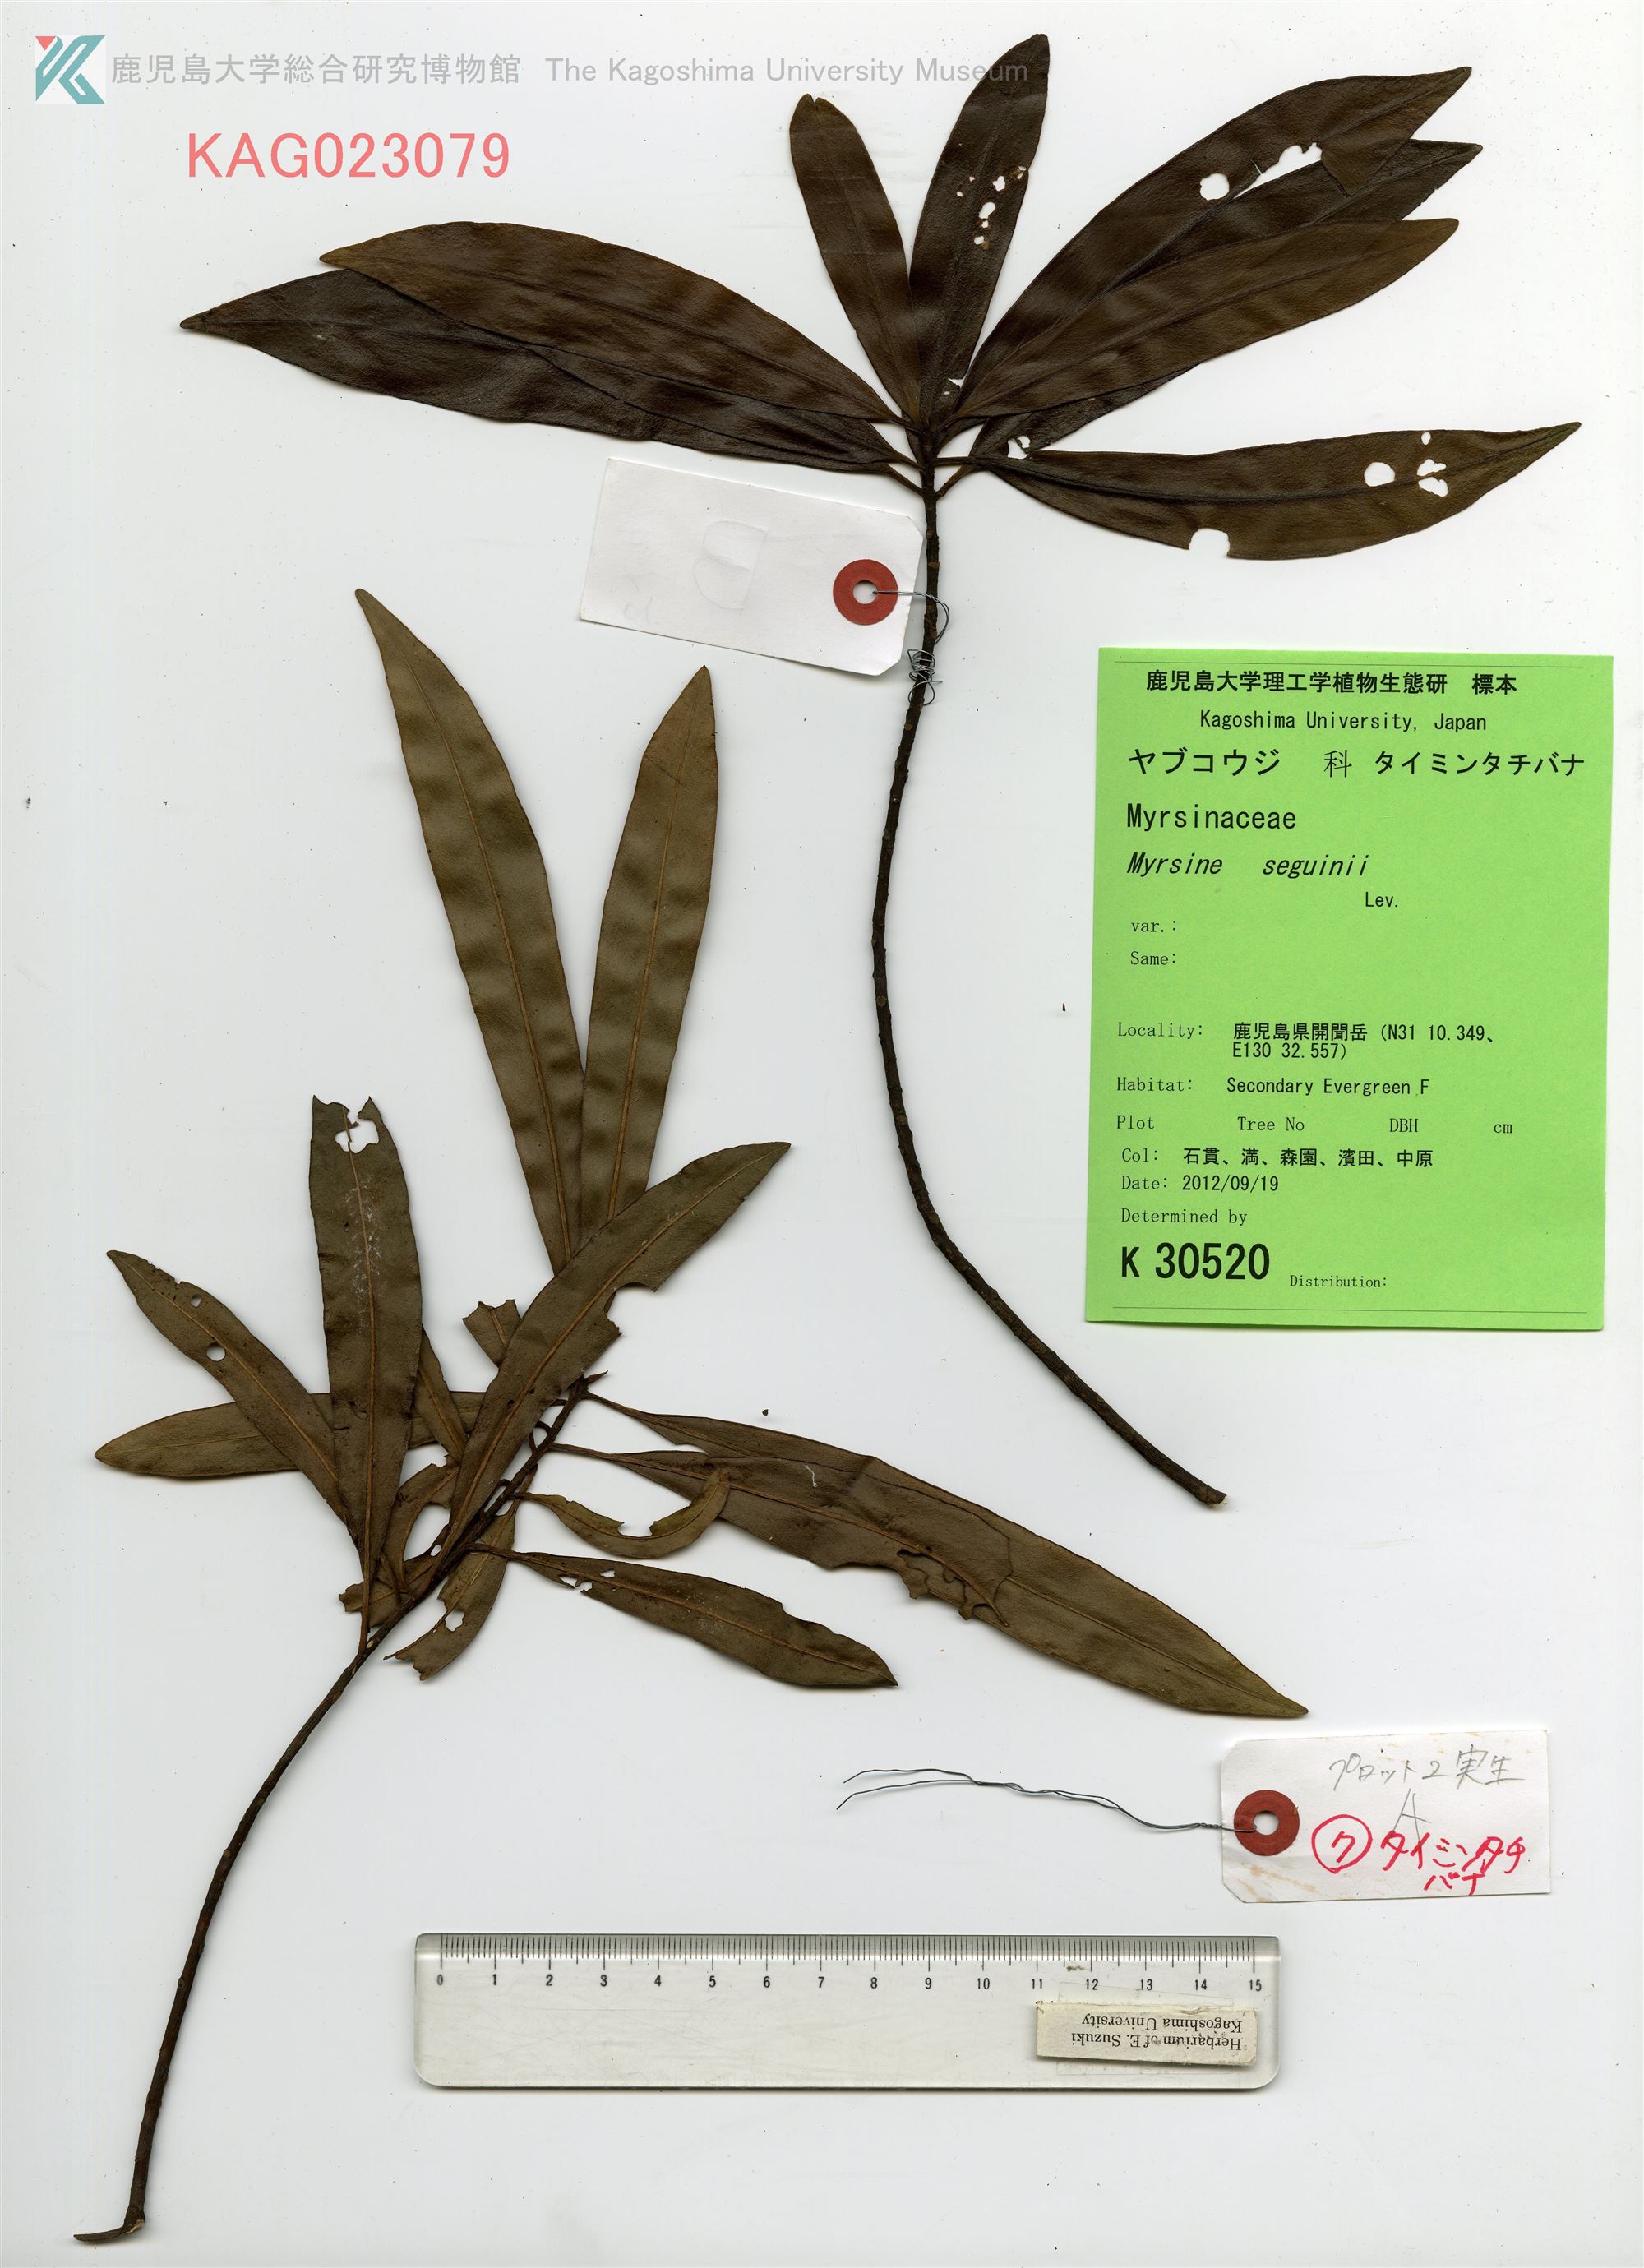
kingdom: Plantae
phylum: Tracheophyta
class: Magnoliopsida
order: Ericales
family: Primulaceae
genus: Myrsine
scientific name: Myrsine seguinii
